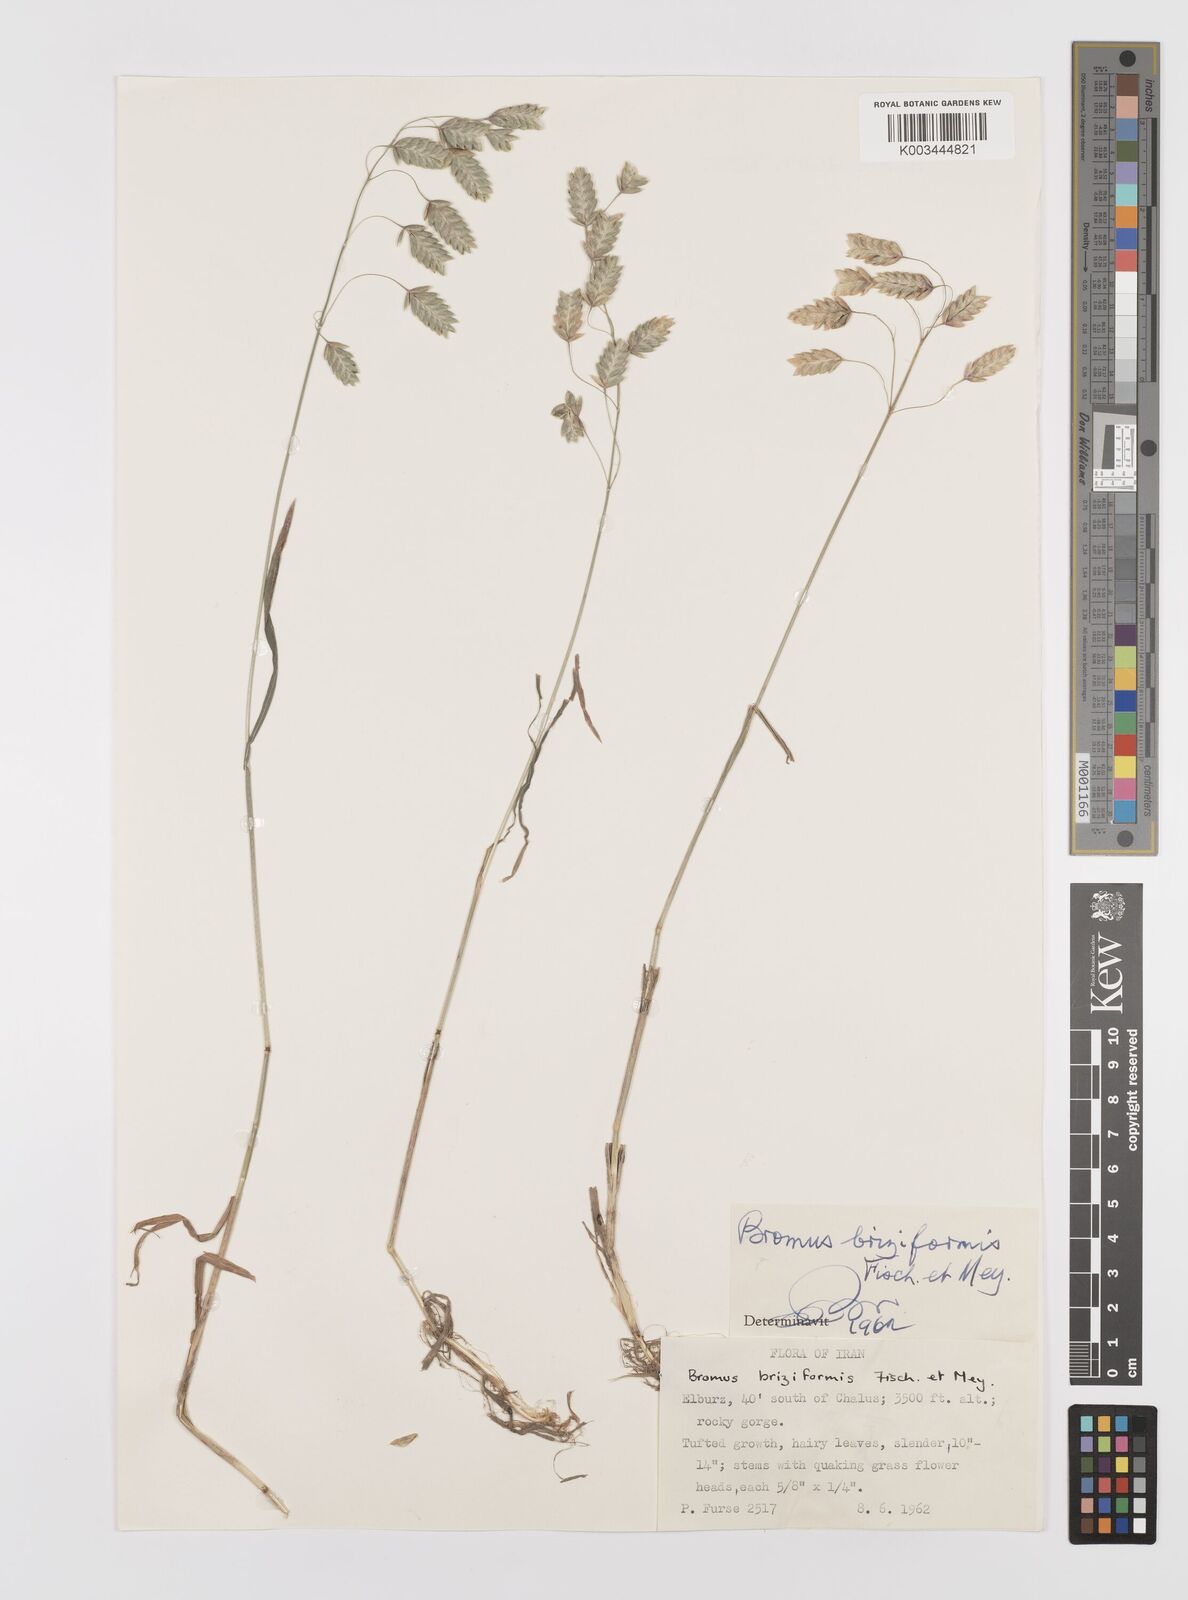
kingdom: Plantae
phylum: Tracheophyta
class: Liliopsida
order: Poales
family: Poaceae
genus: Bromus
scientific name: Bromus briziformis
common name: Rattlesnake brome
